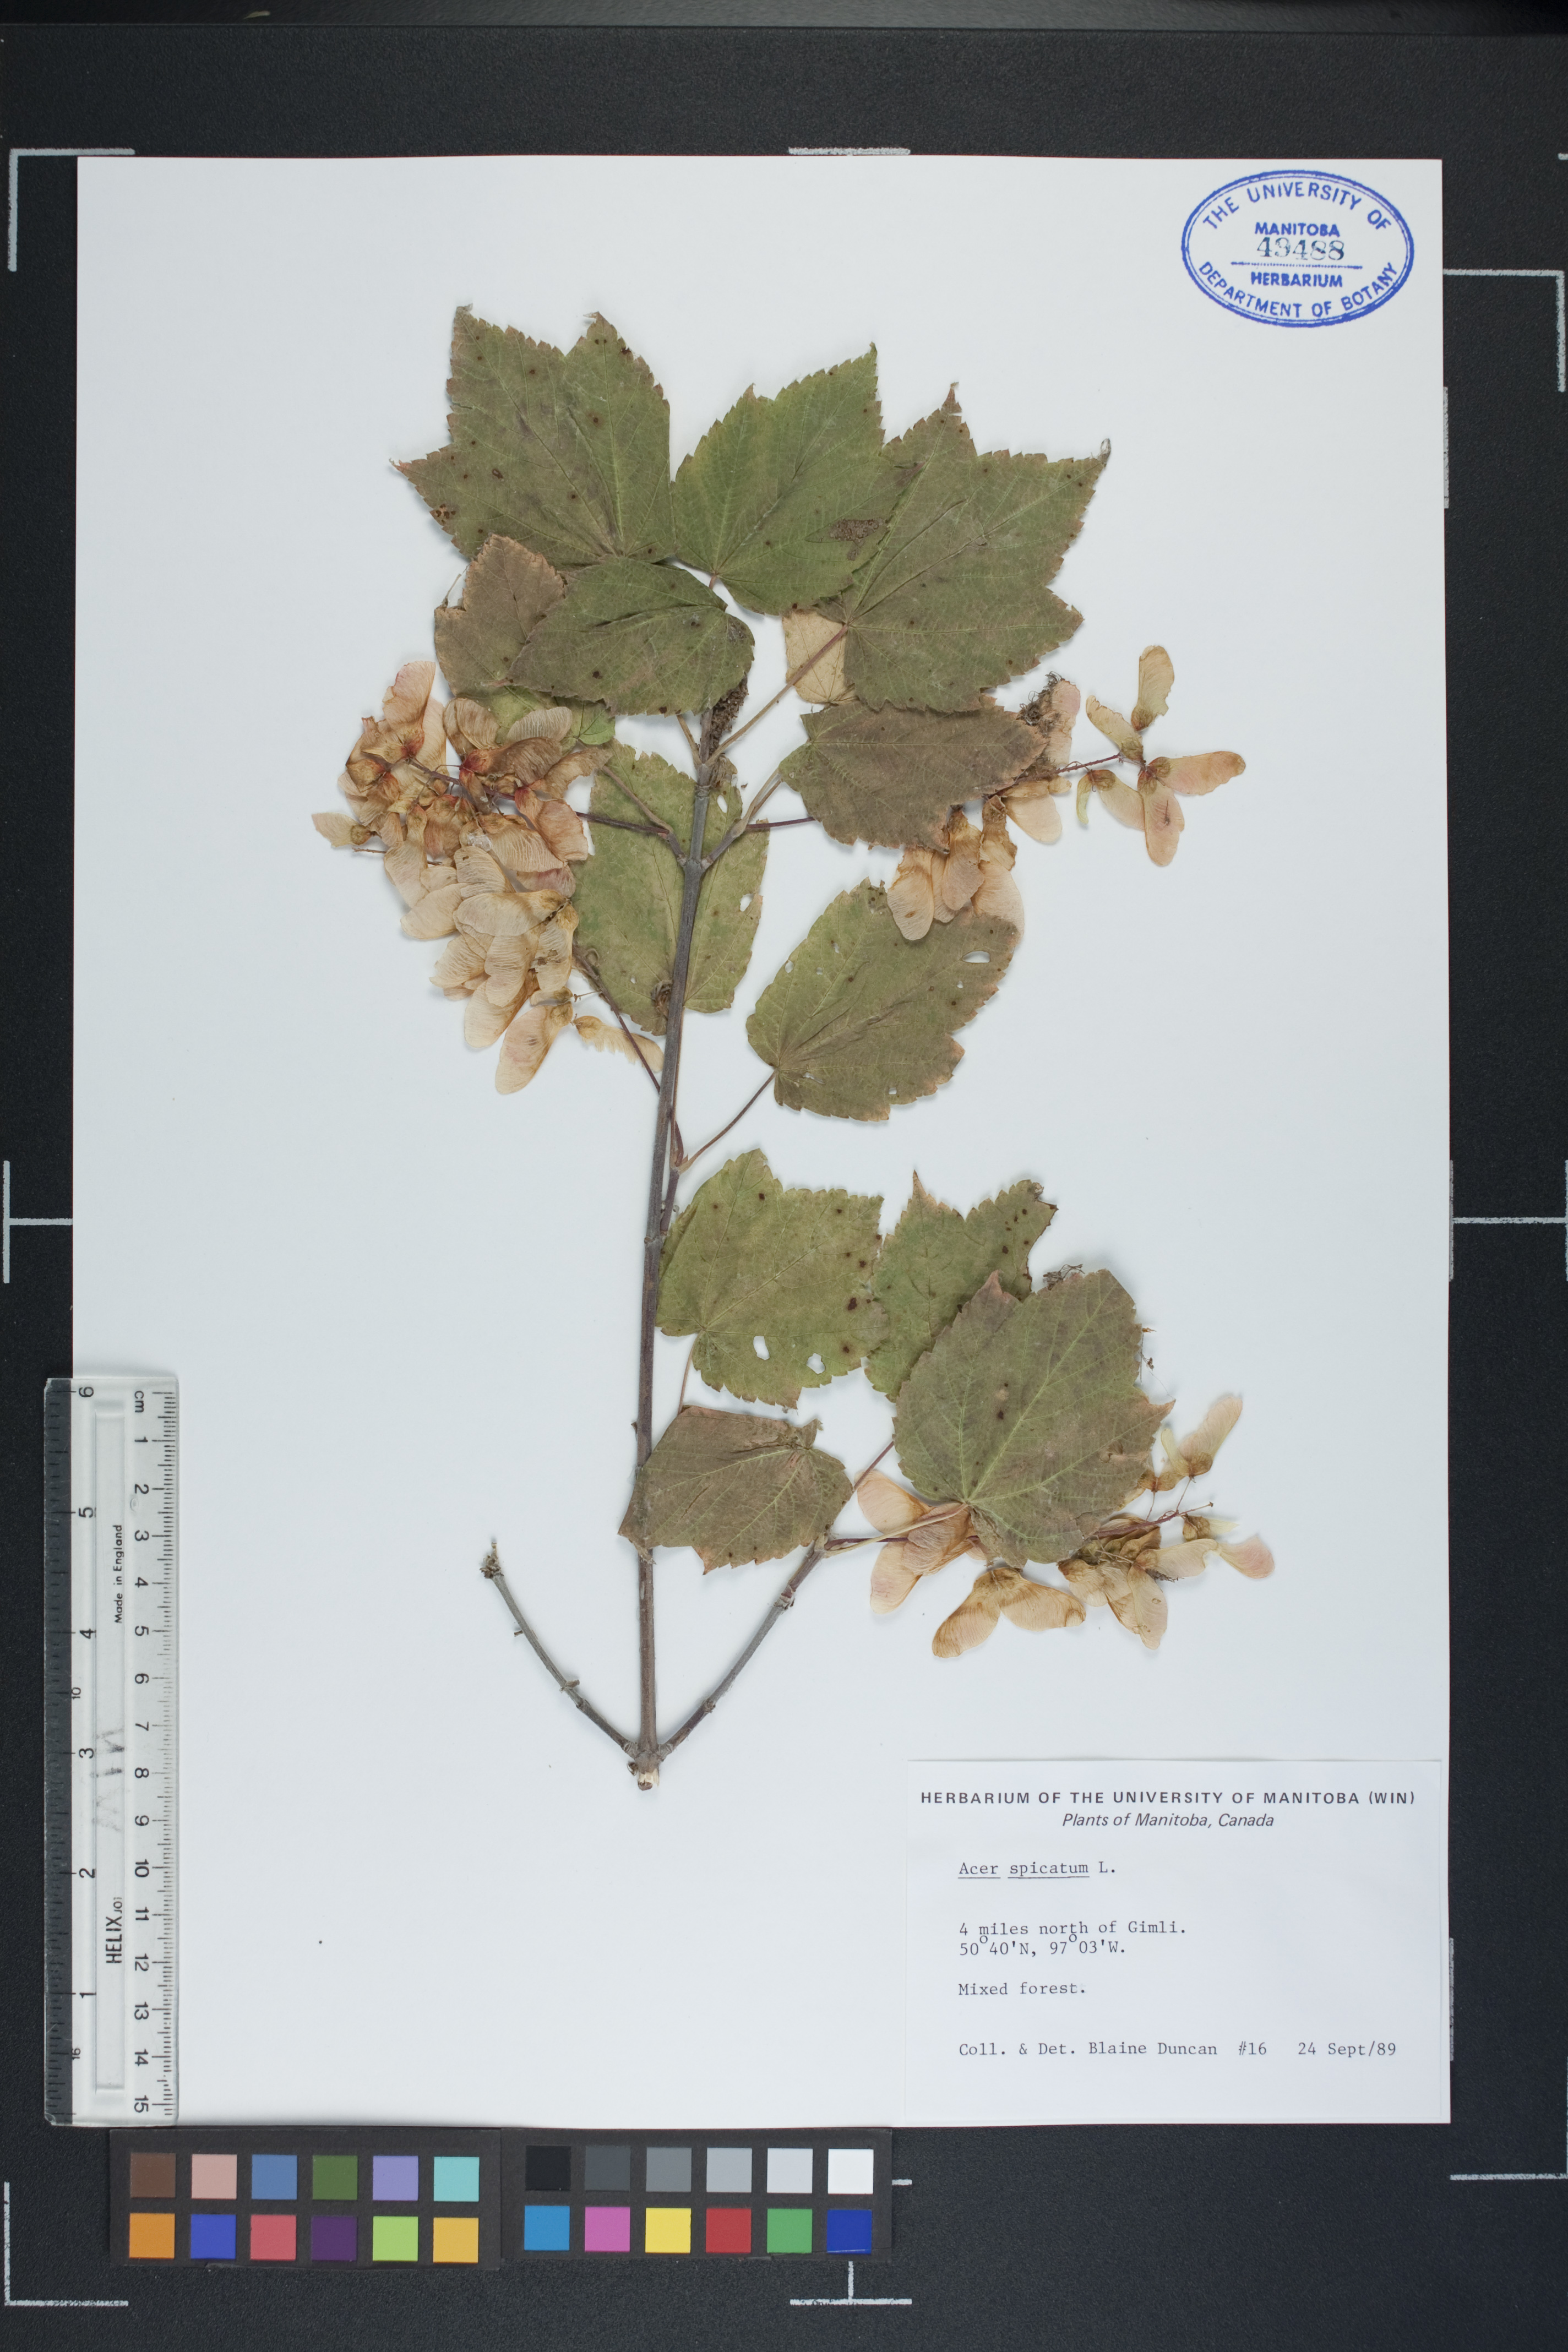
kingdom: Plantae
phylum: Tracheophyta
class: Magnoliopsida
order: Sapindales
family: Sapindaceae
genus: Acer
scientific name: Acer spicatum
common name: Mountain maple
